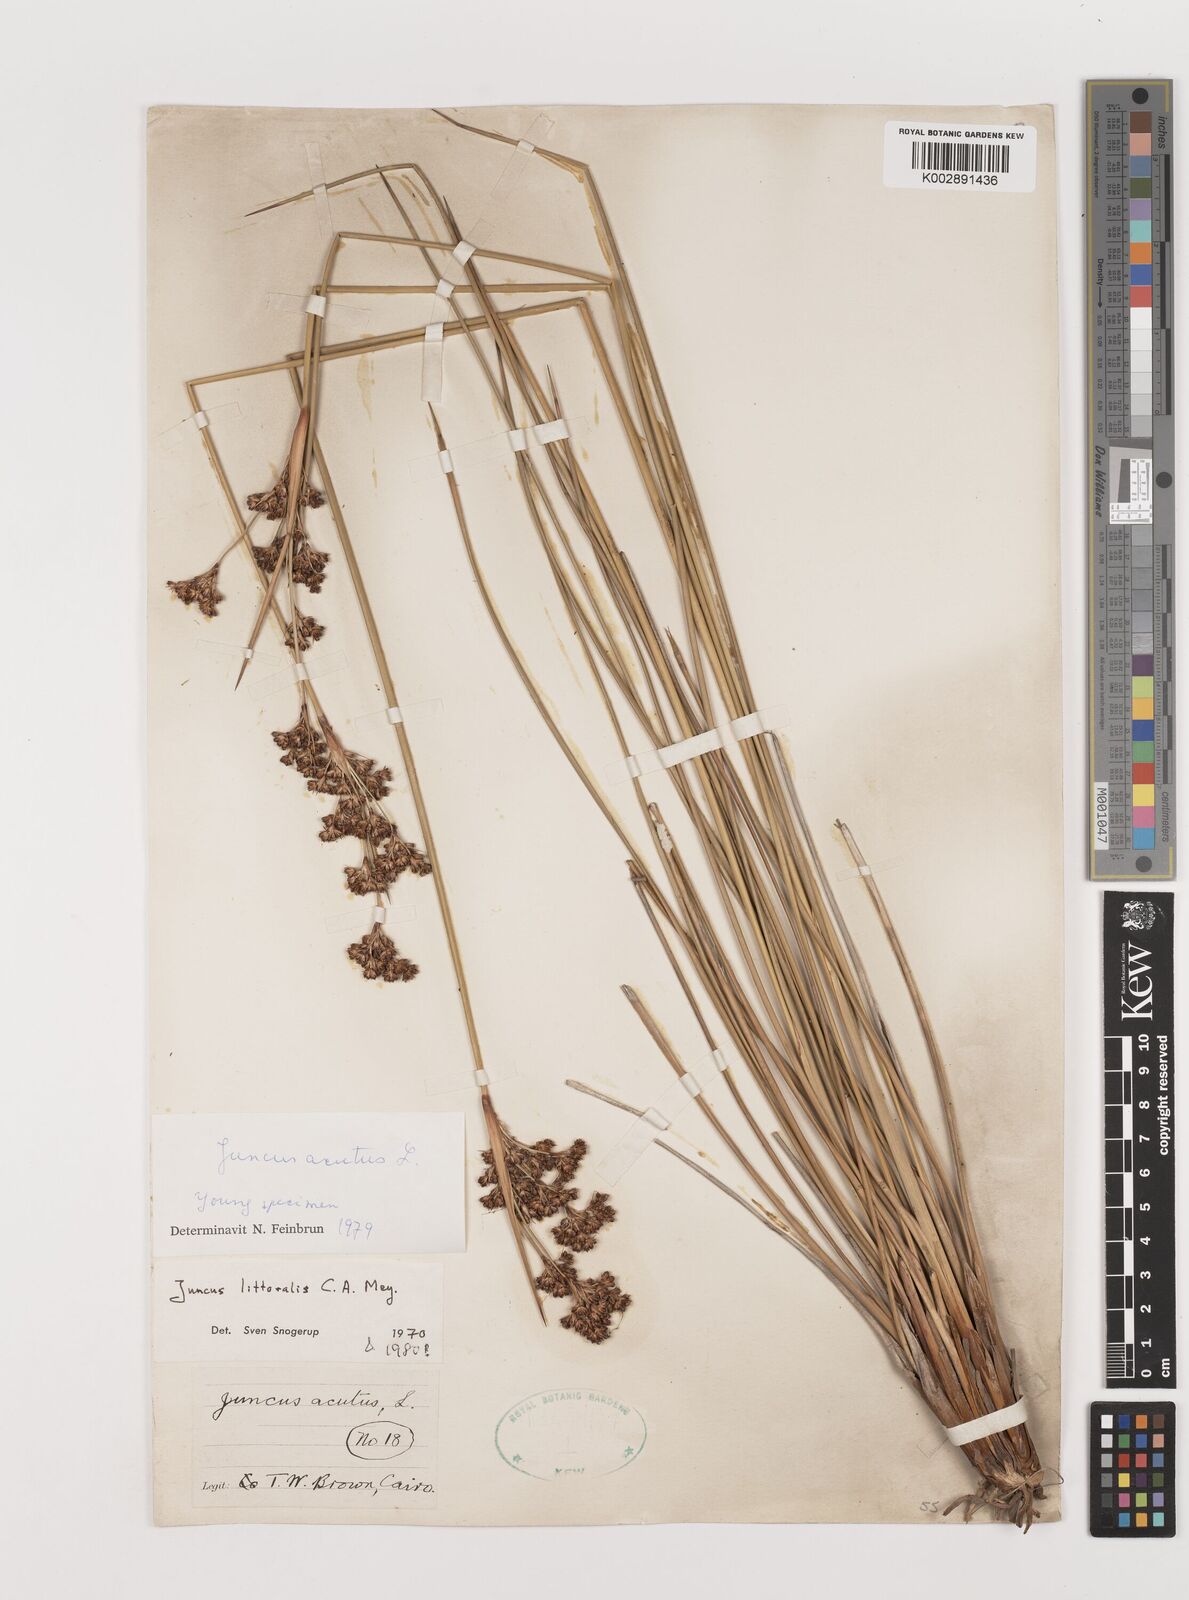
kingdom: Plantae
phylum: Tracheophyta
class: Liliopsida
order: Poales
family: Juncaceae
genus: Juncus
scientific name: Juncus littoralis
